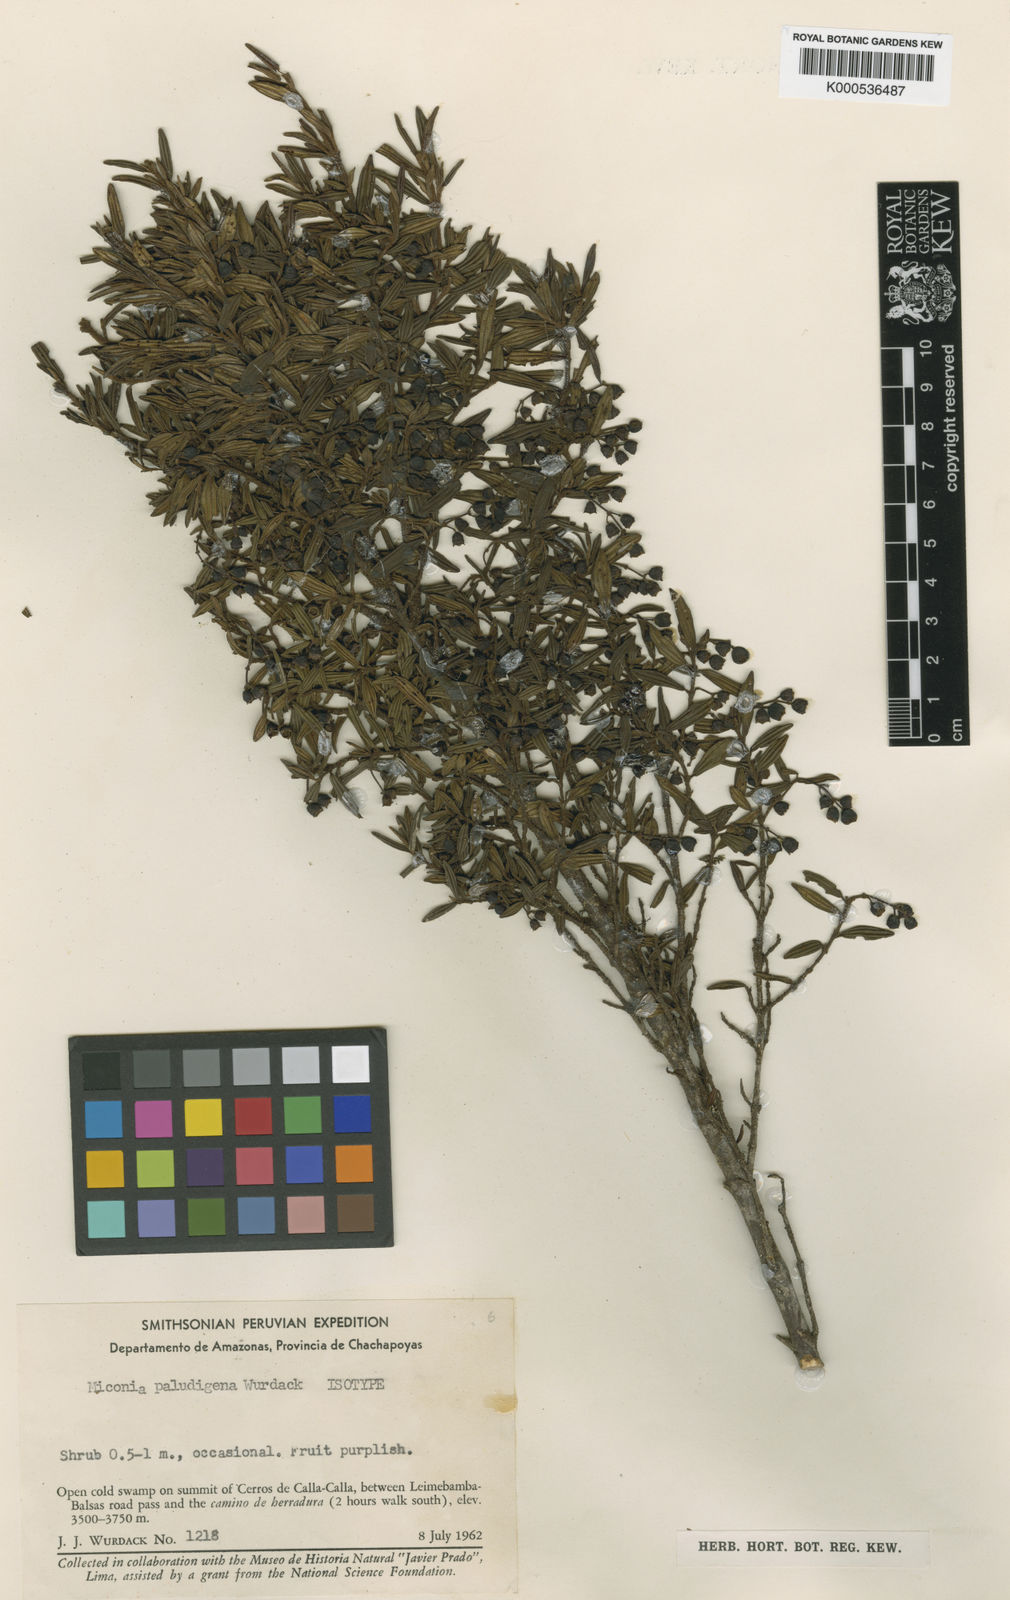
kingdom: Plantae
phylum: Tracheophyta
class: Magnoliopsida
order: Myrtales
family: Melastomataceae
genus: Miconia
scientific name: Miconia paludigena
